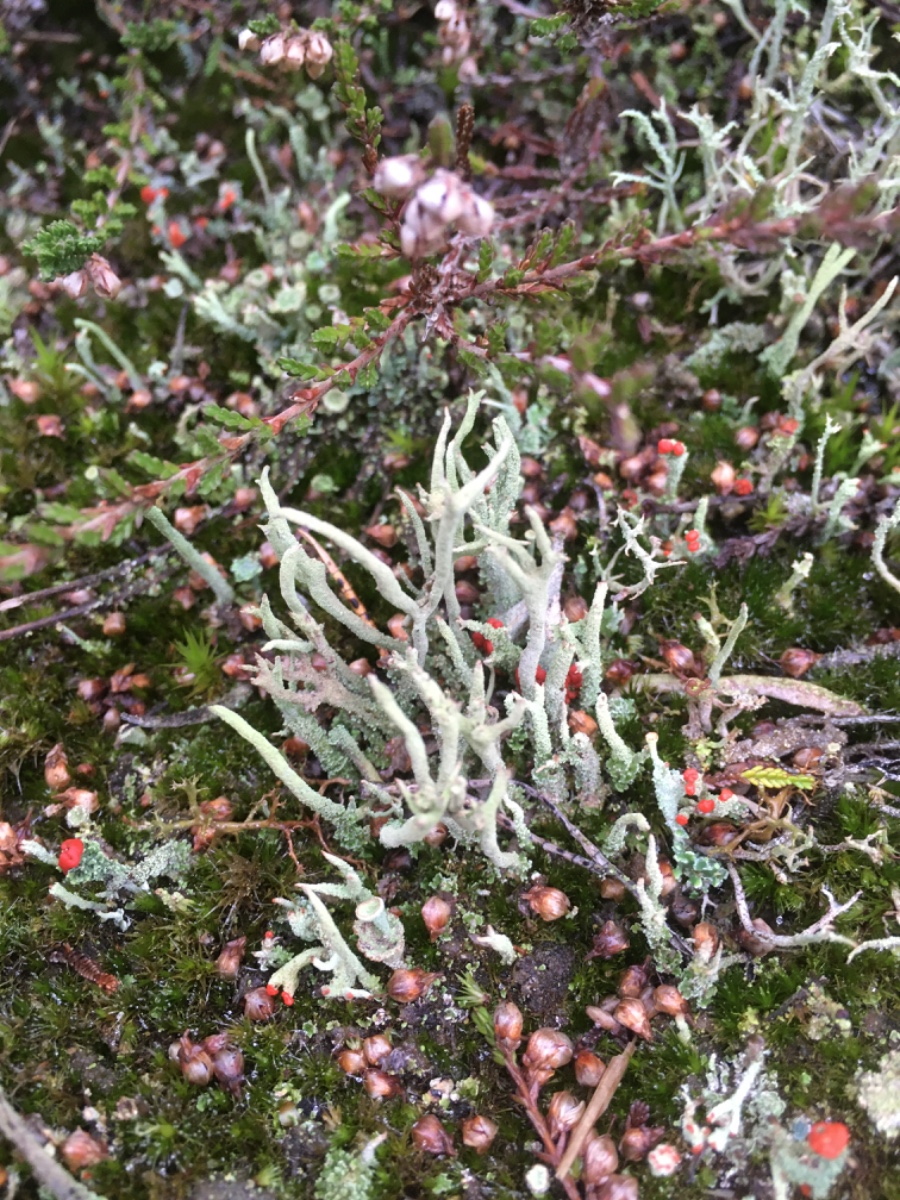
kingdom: Fungi
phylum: Ascomycota
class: Lecanoromycetes
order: Lecanorales
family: Cladoniaceae
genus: Cladonia
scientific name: Cladonia
